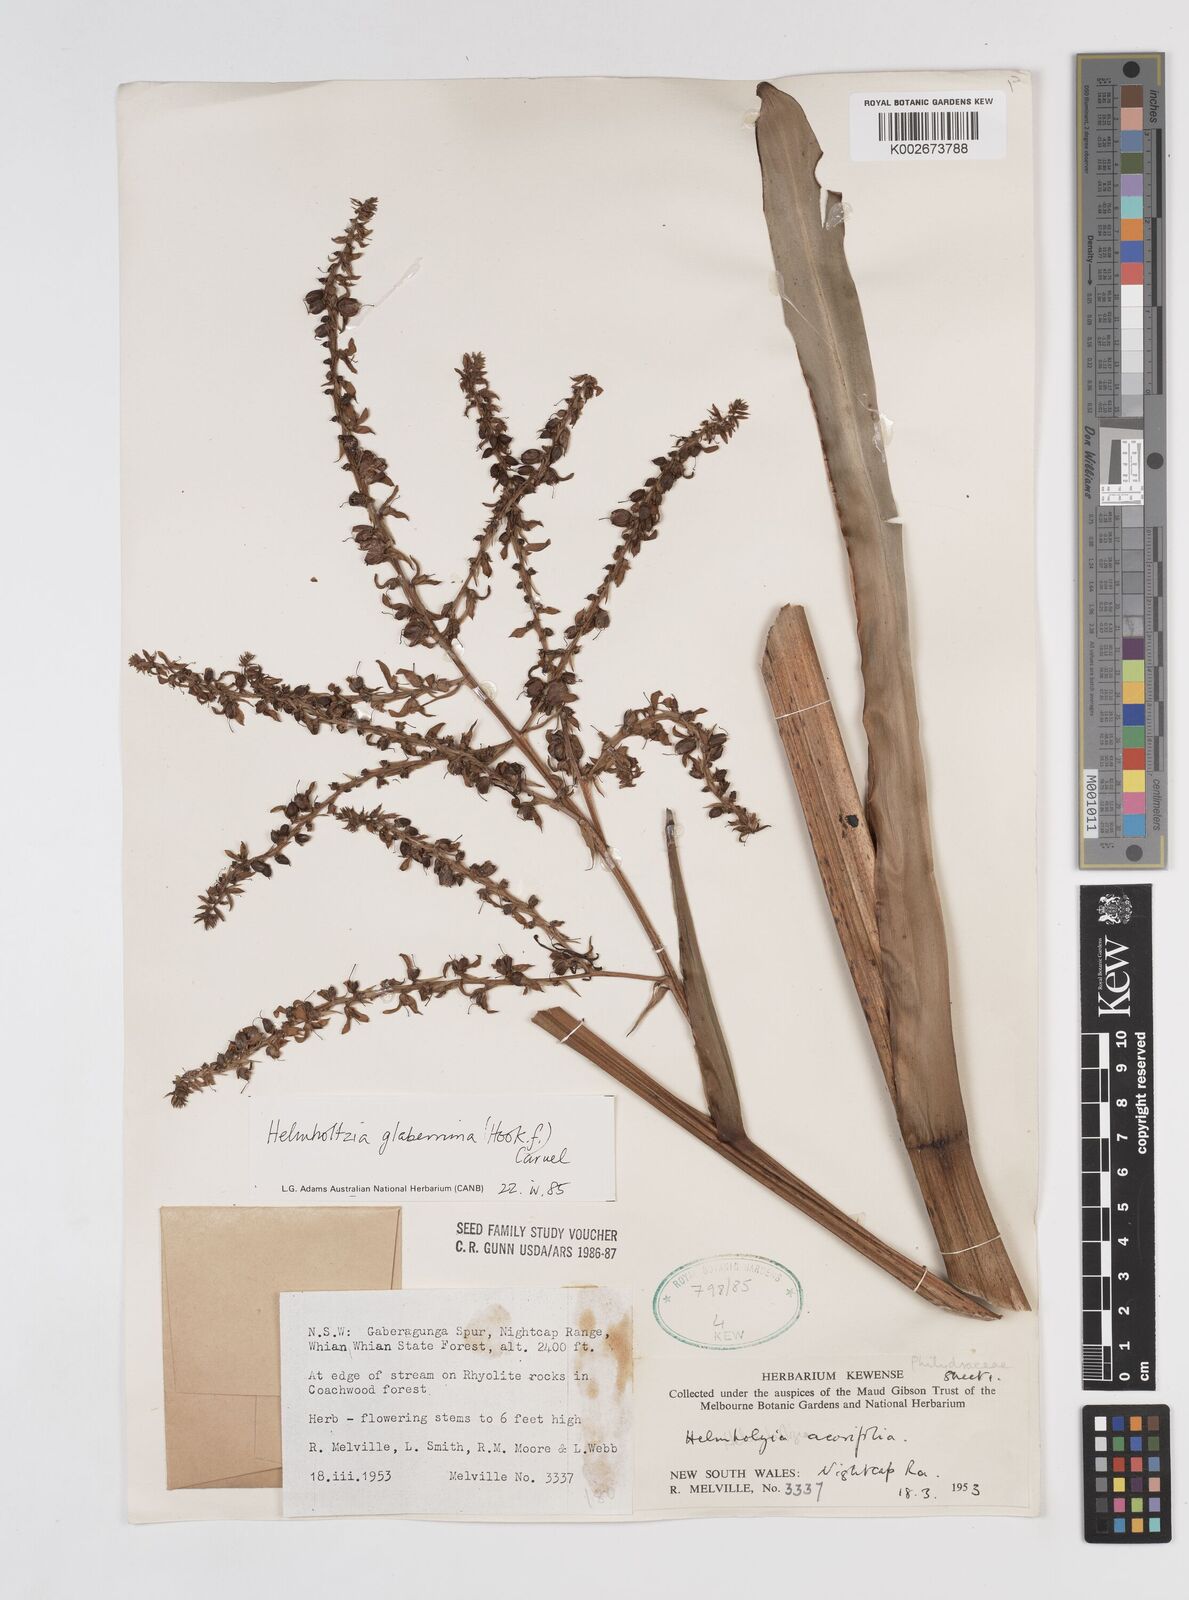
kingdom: Plantae
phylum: Tracheophyta
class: Liliopsida
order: Commelinales
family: Philydraceae
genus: Helmholtzia
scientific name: Helmholtzia glaberrima
